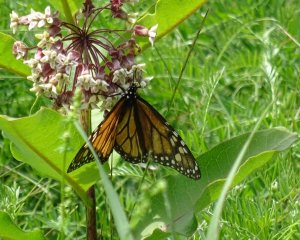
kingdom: Animalia
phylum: Arthropoda
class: Insecta
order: Lepidoptera
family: Nymphalidae
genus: Danaus
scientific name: Danaus plexippus
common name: Monarch
